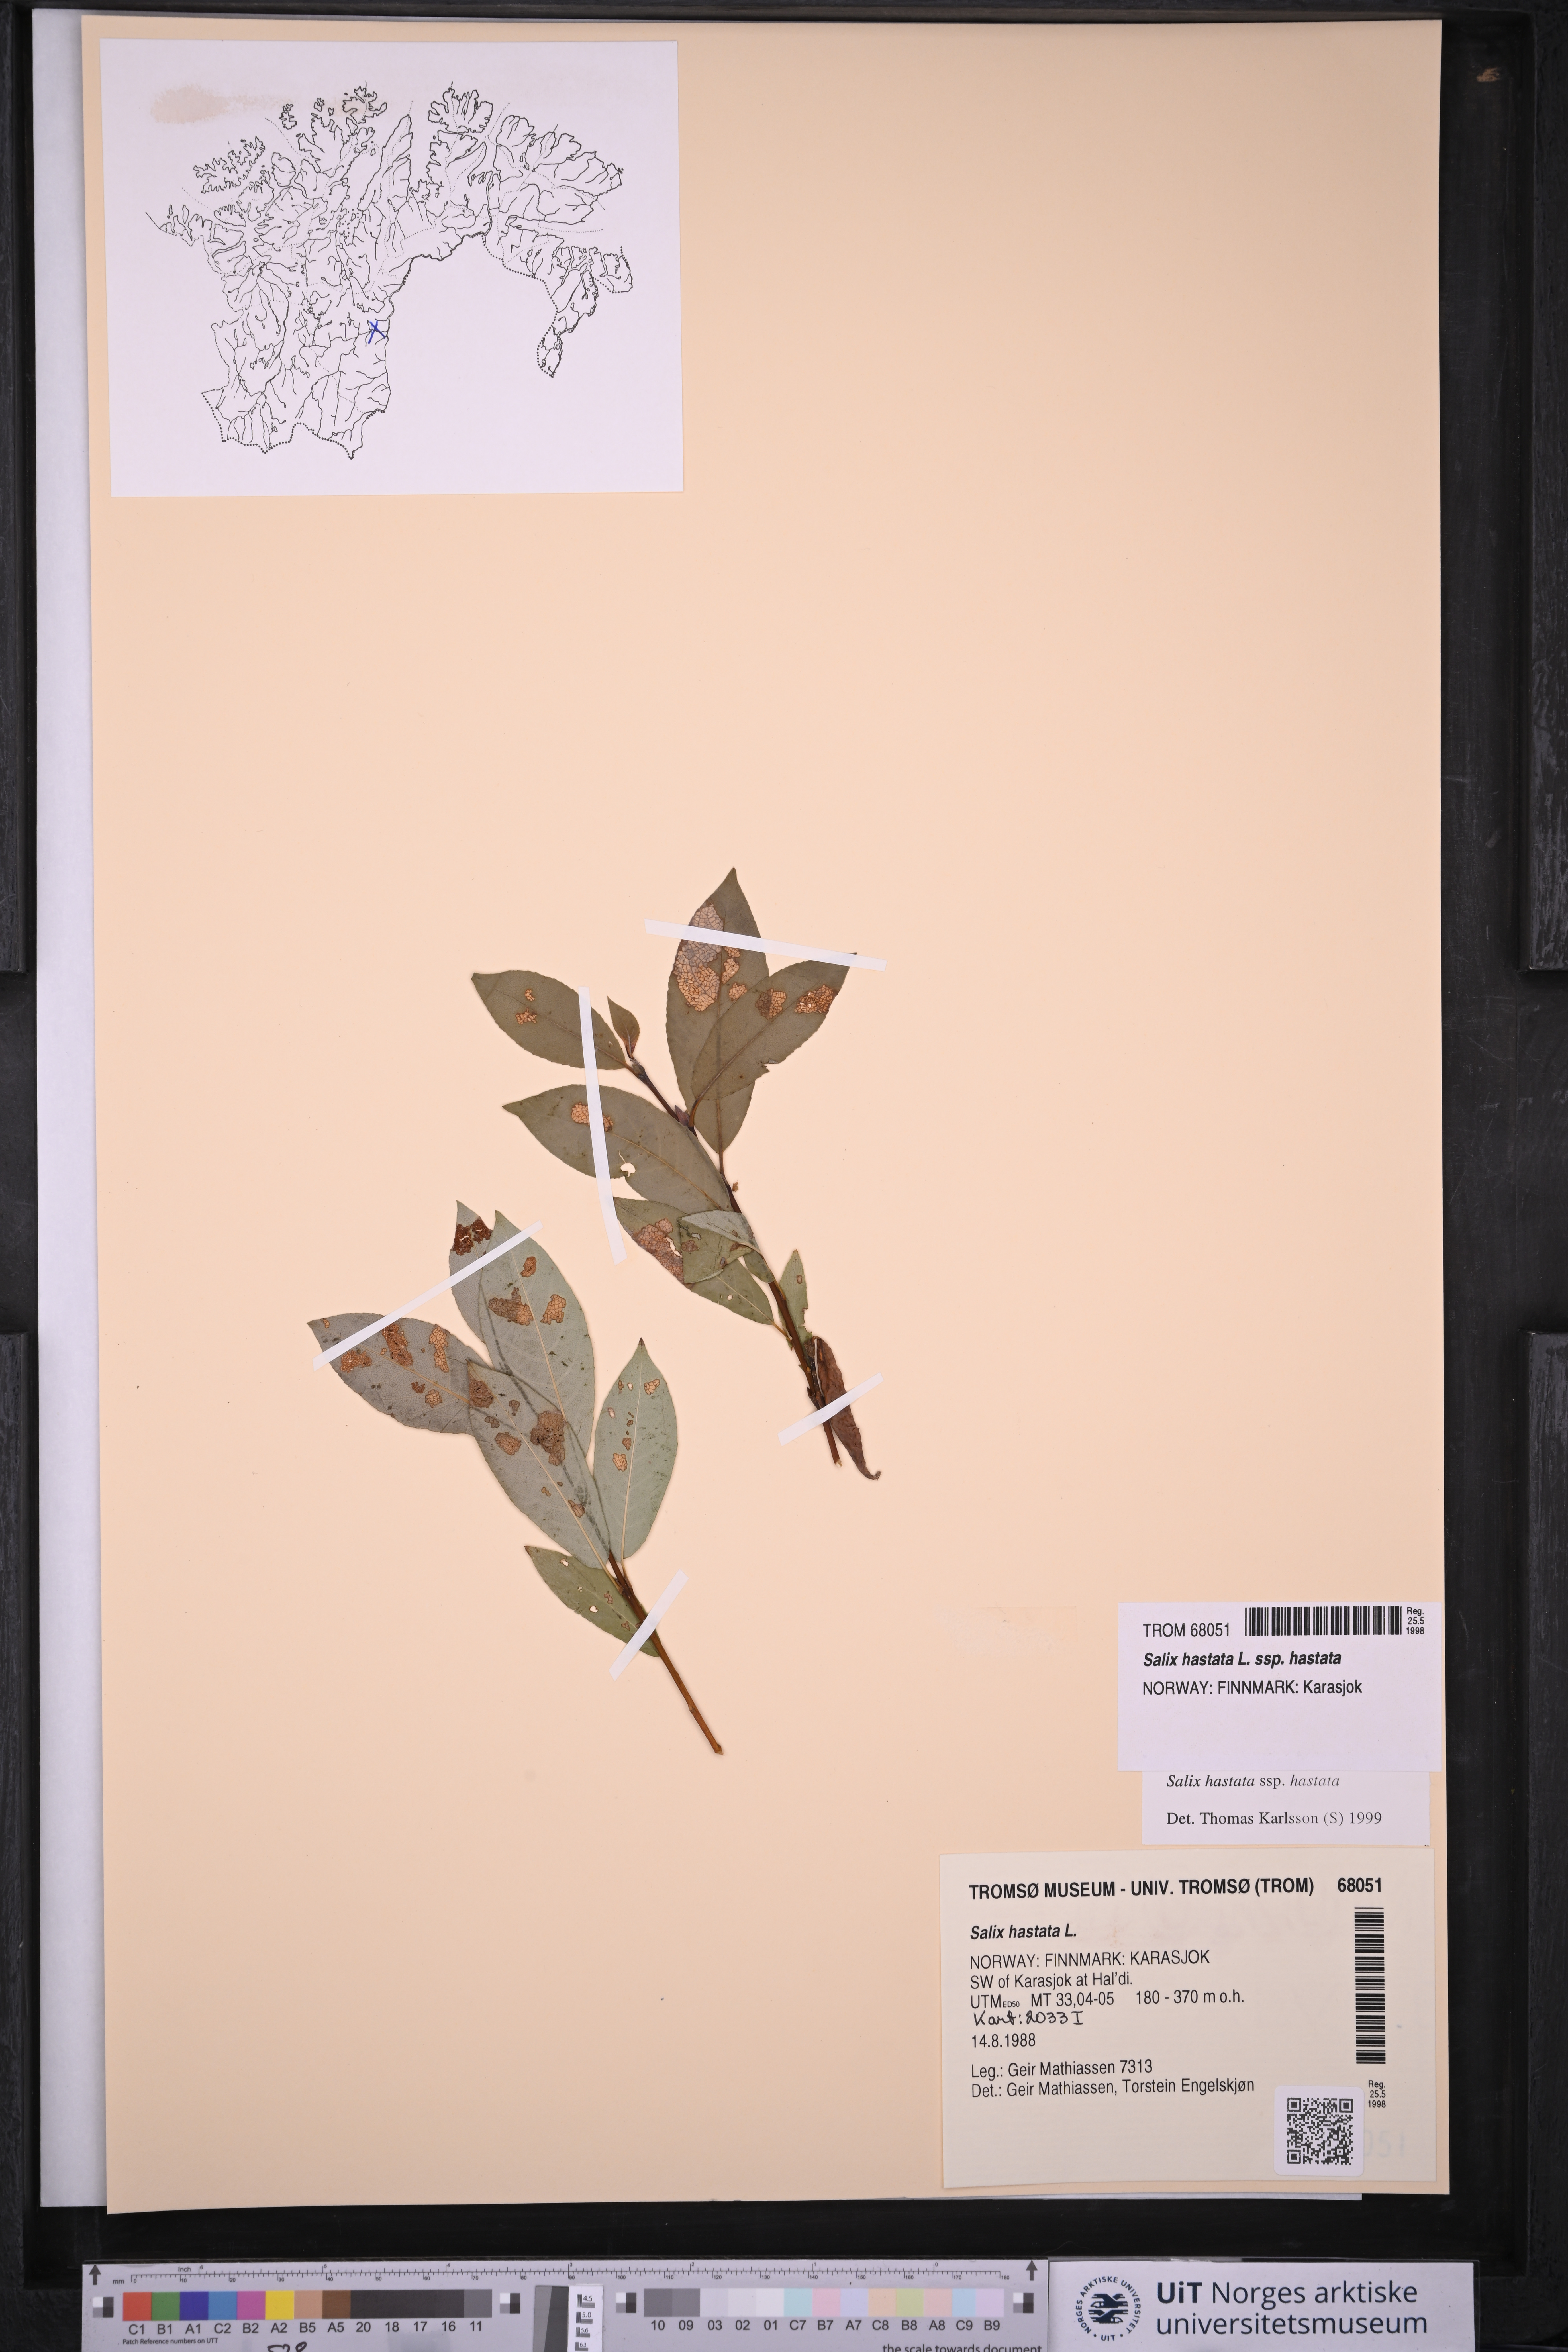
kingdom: Plantae
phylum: Tracheophyta
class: Magnoliopsida
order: Malpighiales
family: Salicaceae
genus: Salix
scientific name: Salix hastata
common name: Halberd willow
